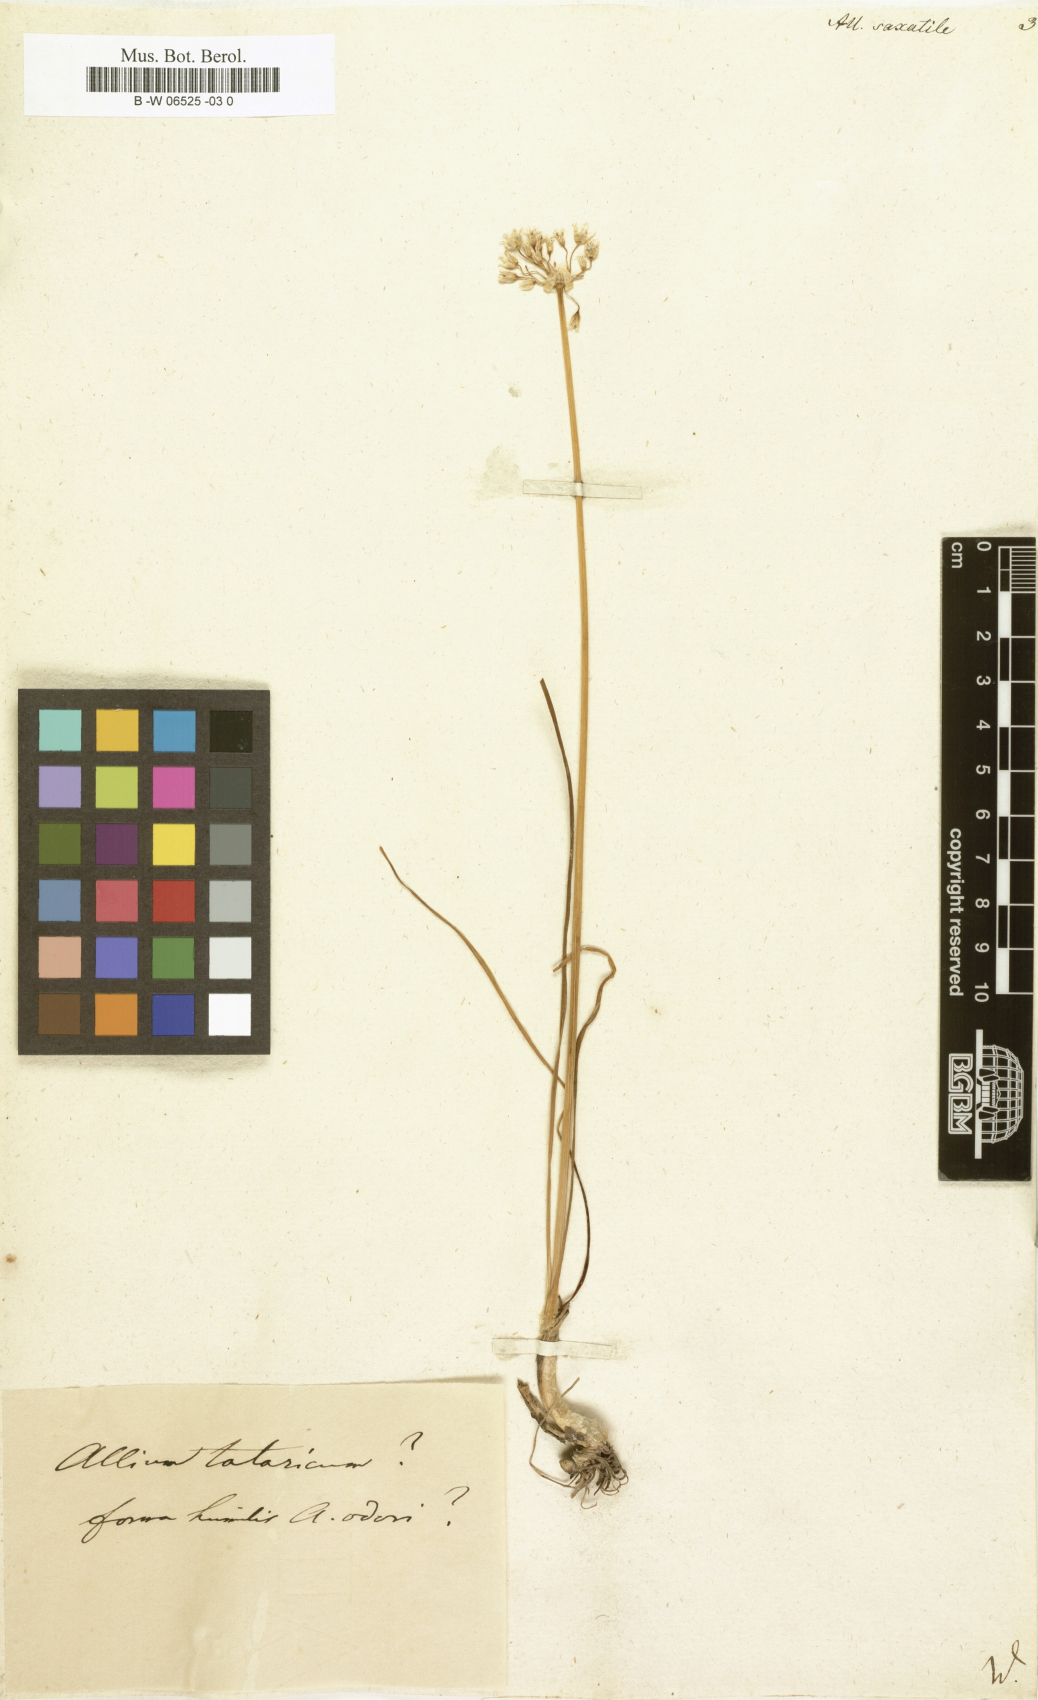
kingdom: Plantae
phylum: Tracheophyta
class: Liliopsida
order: Asparagales
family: Amaryllidaceae
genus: Allium
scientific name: Allium saxatile
